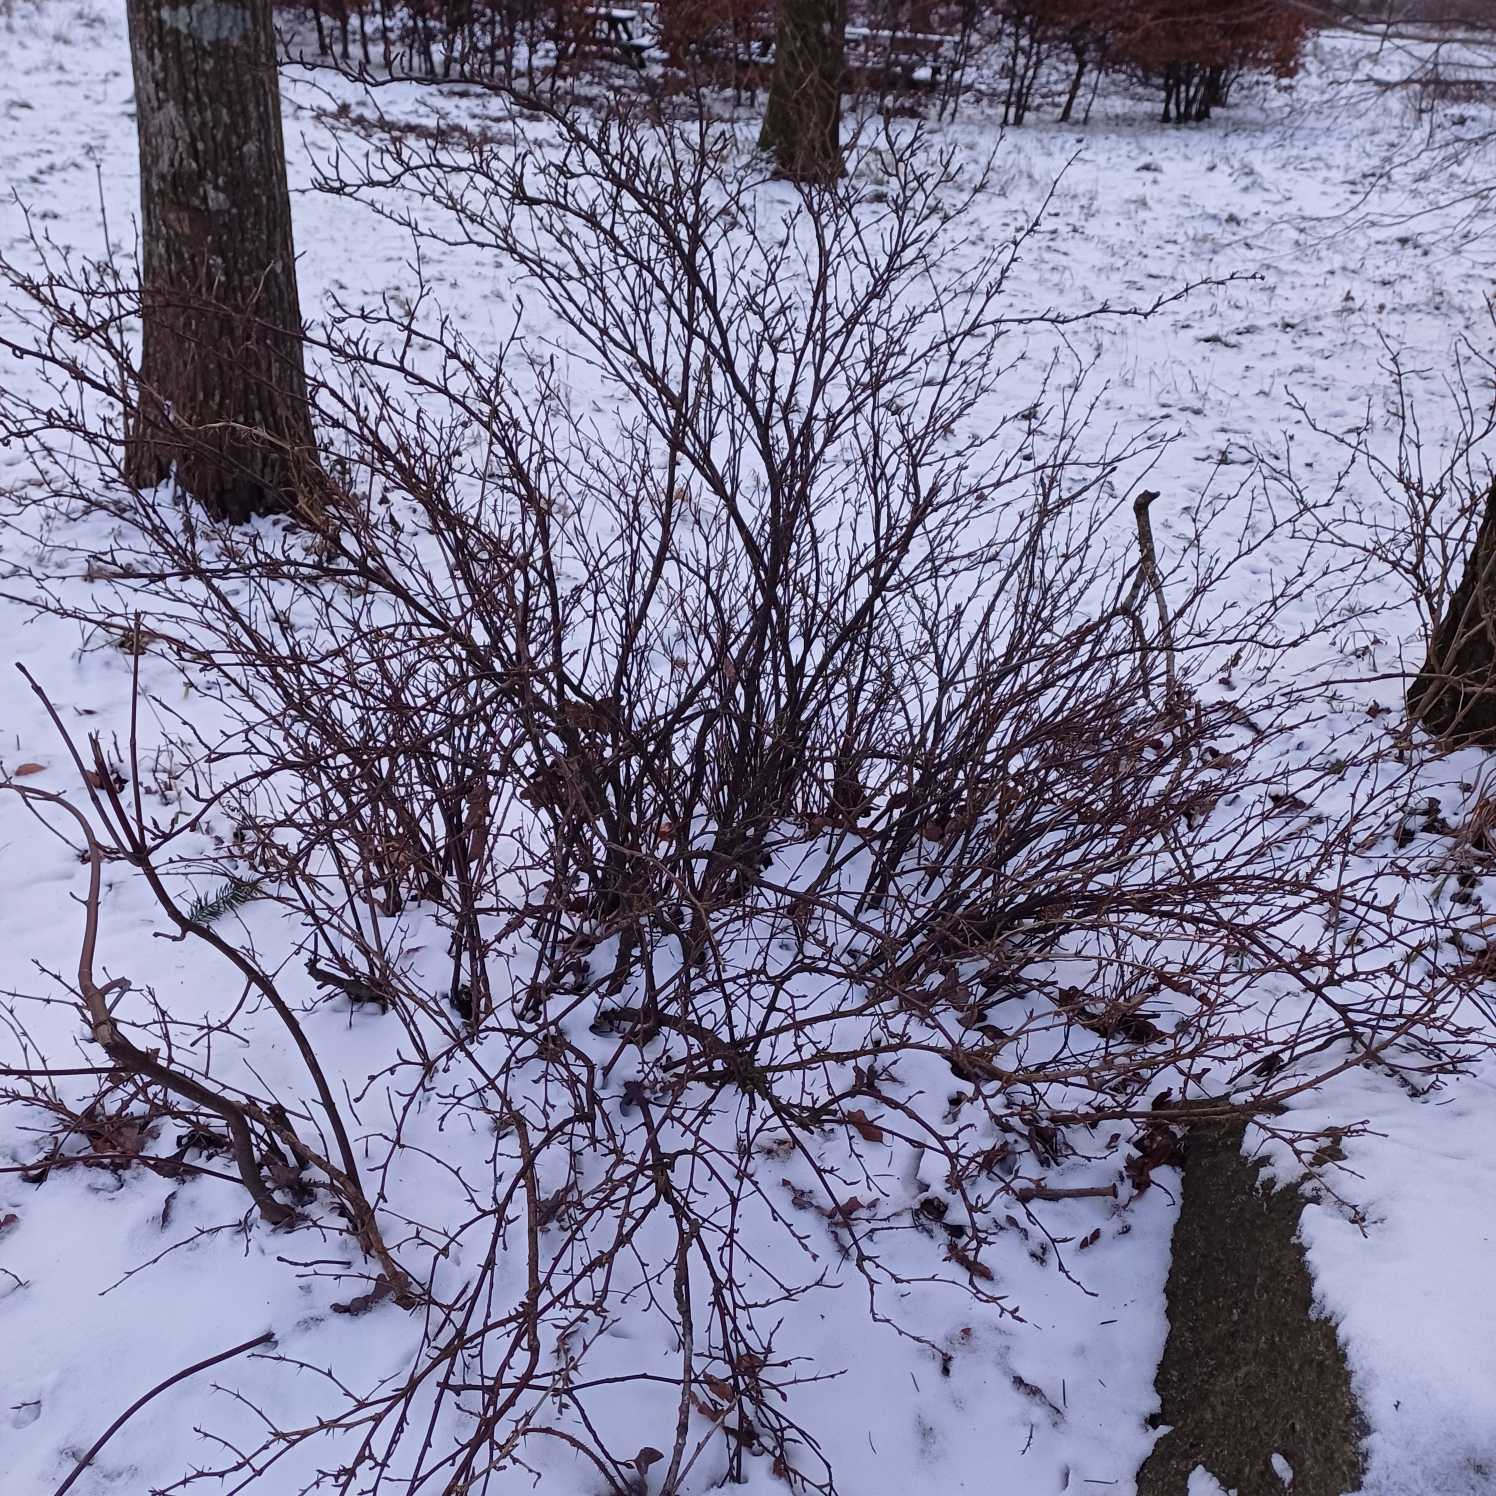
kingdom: Plantae
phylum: Tracheophyta
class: Magnoliopsida
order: Saxifragales
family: Grossulariaceae
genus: Ribes
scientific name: Ribes uva-crispa
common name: Stikkelsbær
